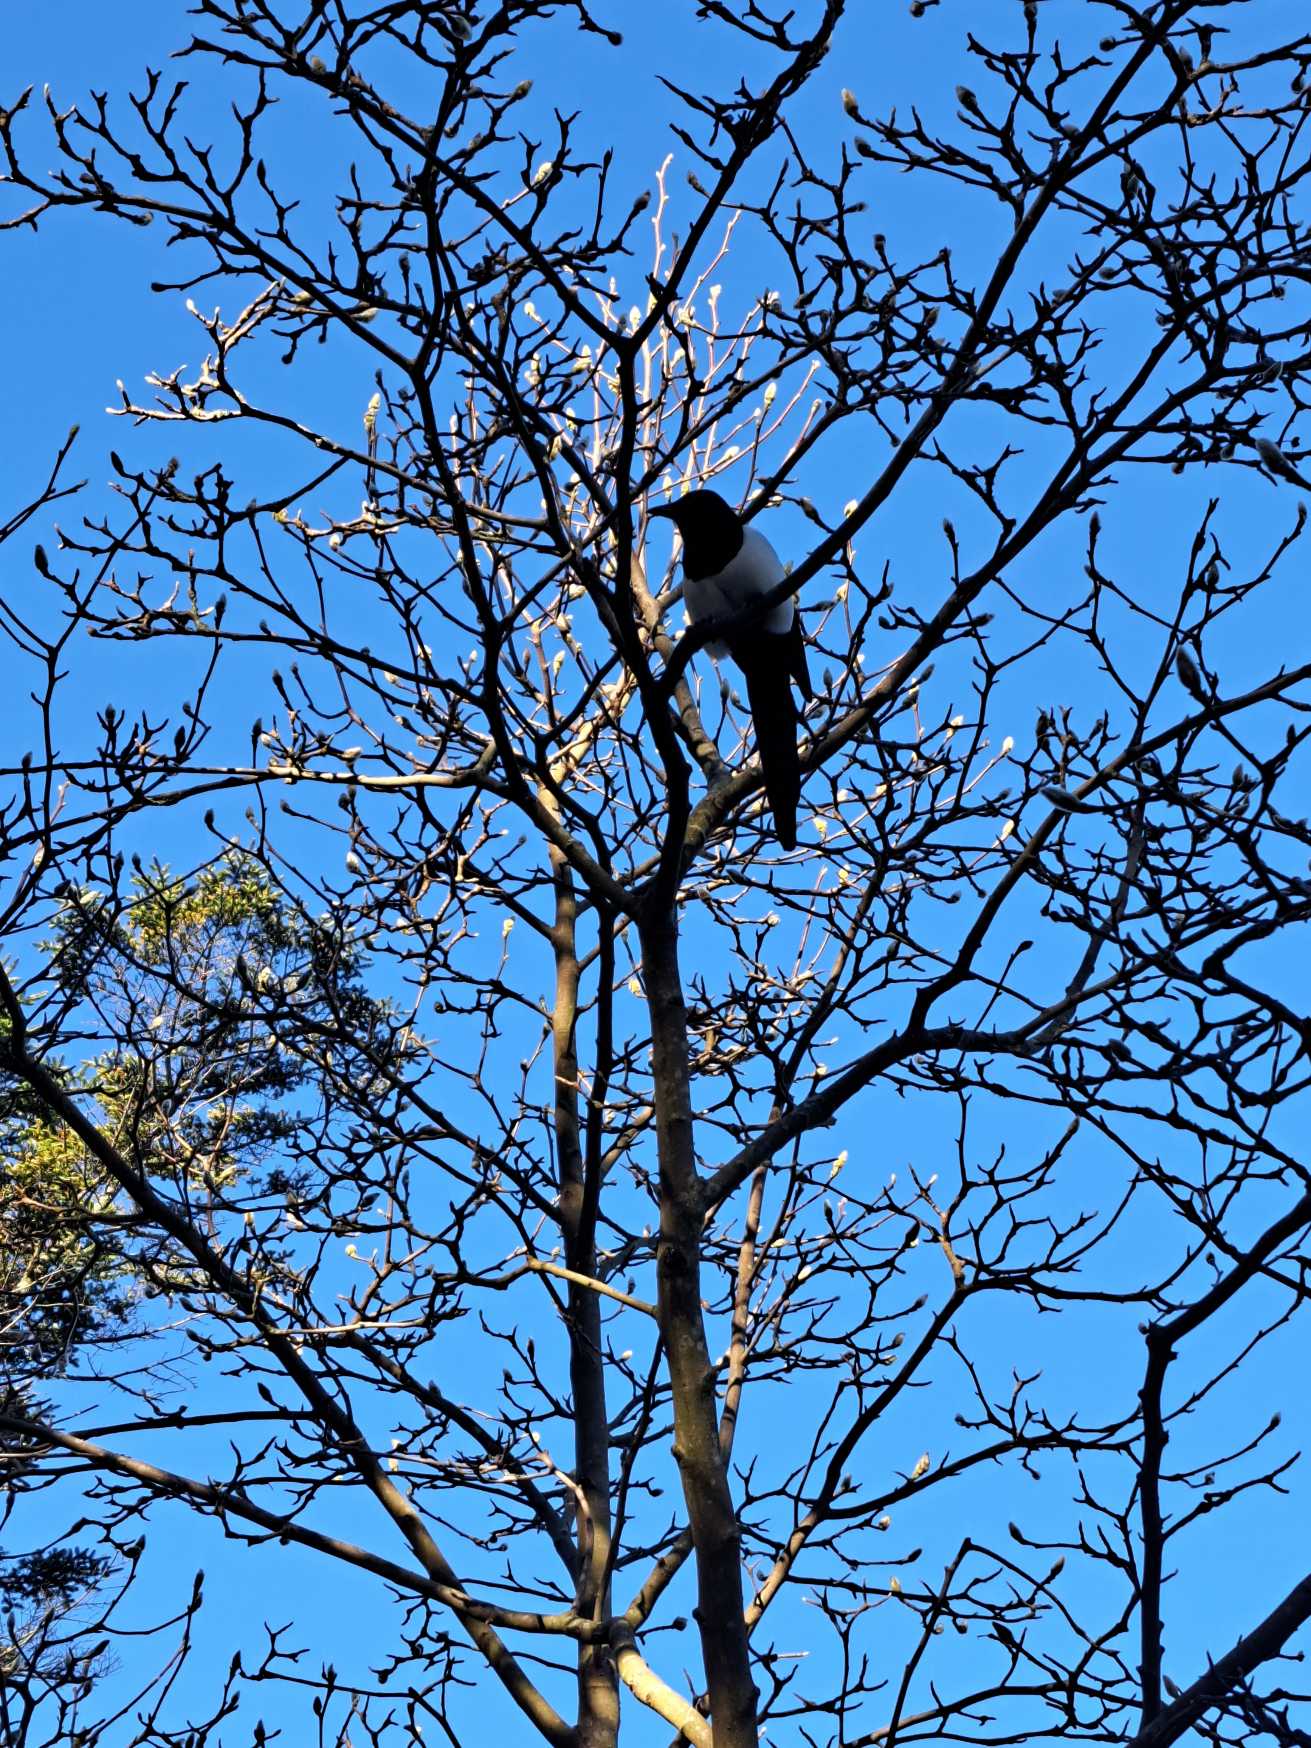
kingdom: Animalia
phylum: Chordata
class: Aves
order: Passeriformes
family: Corvidae
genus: Pica
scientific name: Pica pica
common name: Husskade
